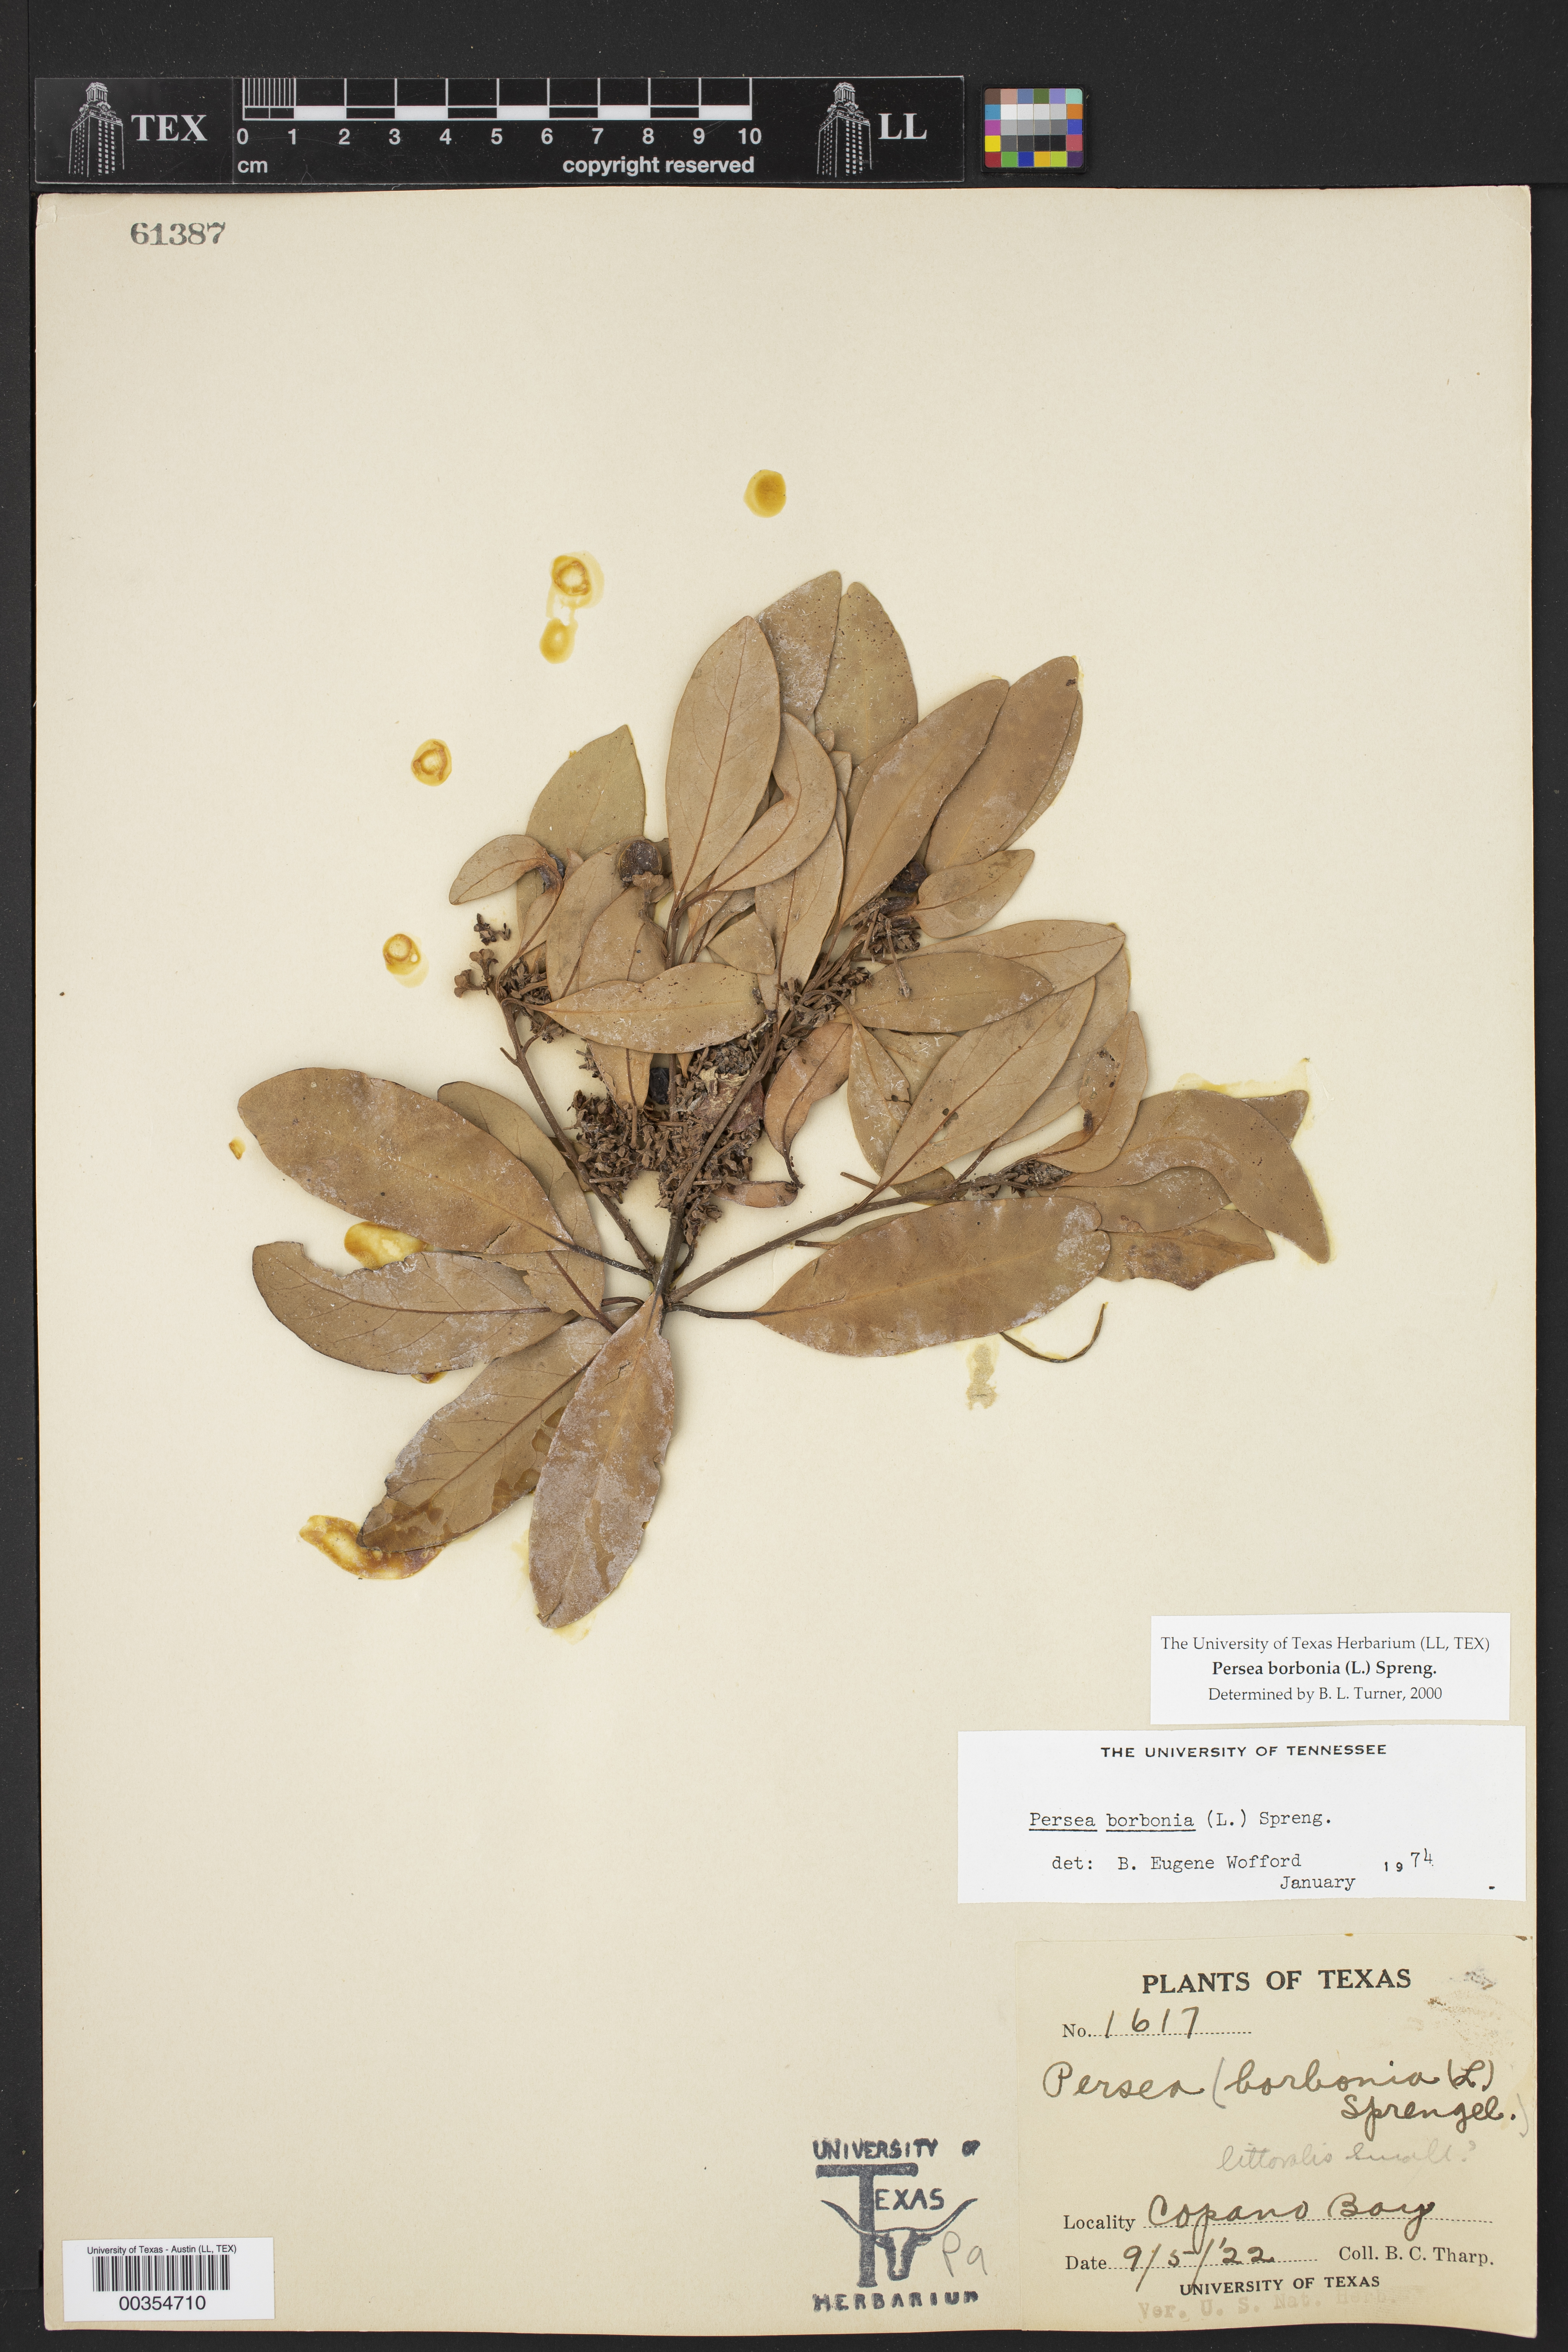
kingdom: Plantae
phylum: Tracheophyta
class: Magnoliopsida
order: Laurales
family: Lauraceae
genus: Persea
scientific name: Persea borbonia
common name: Redbay
